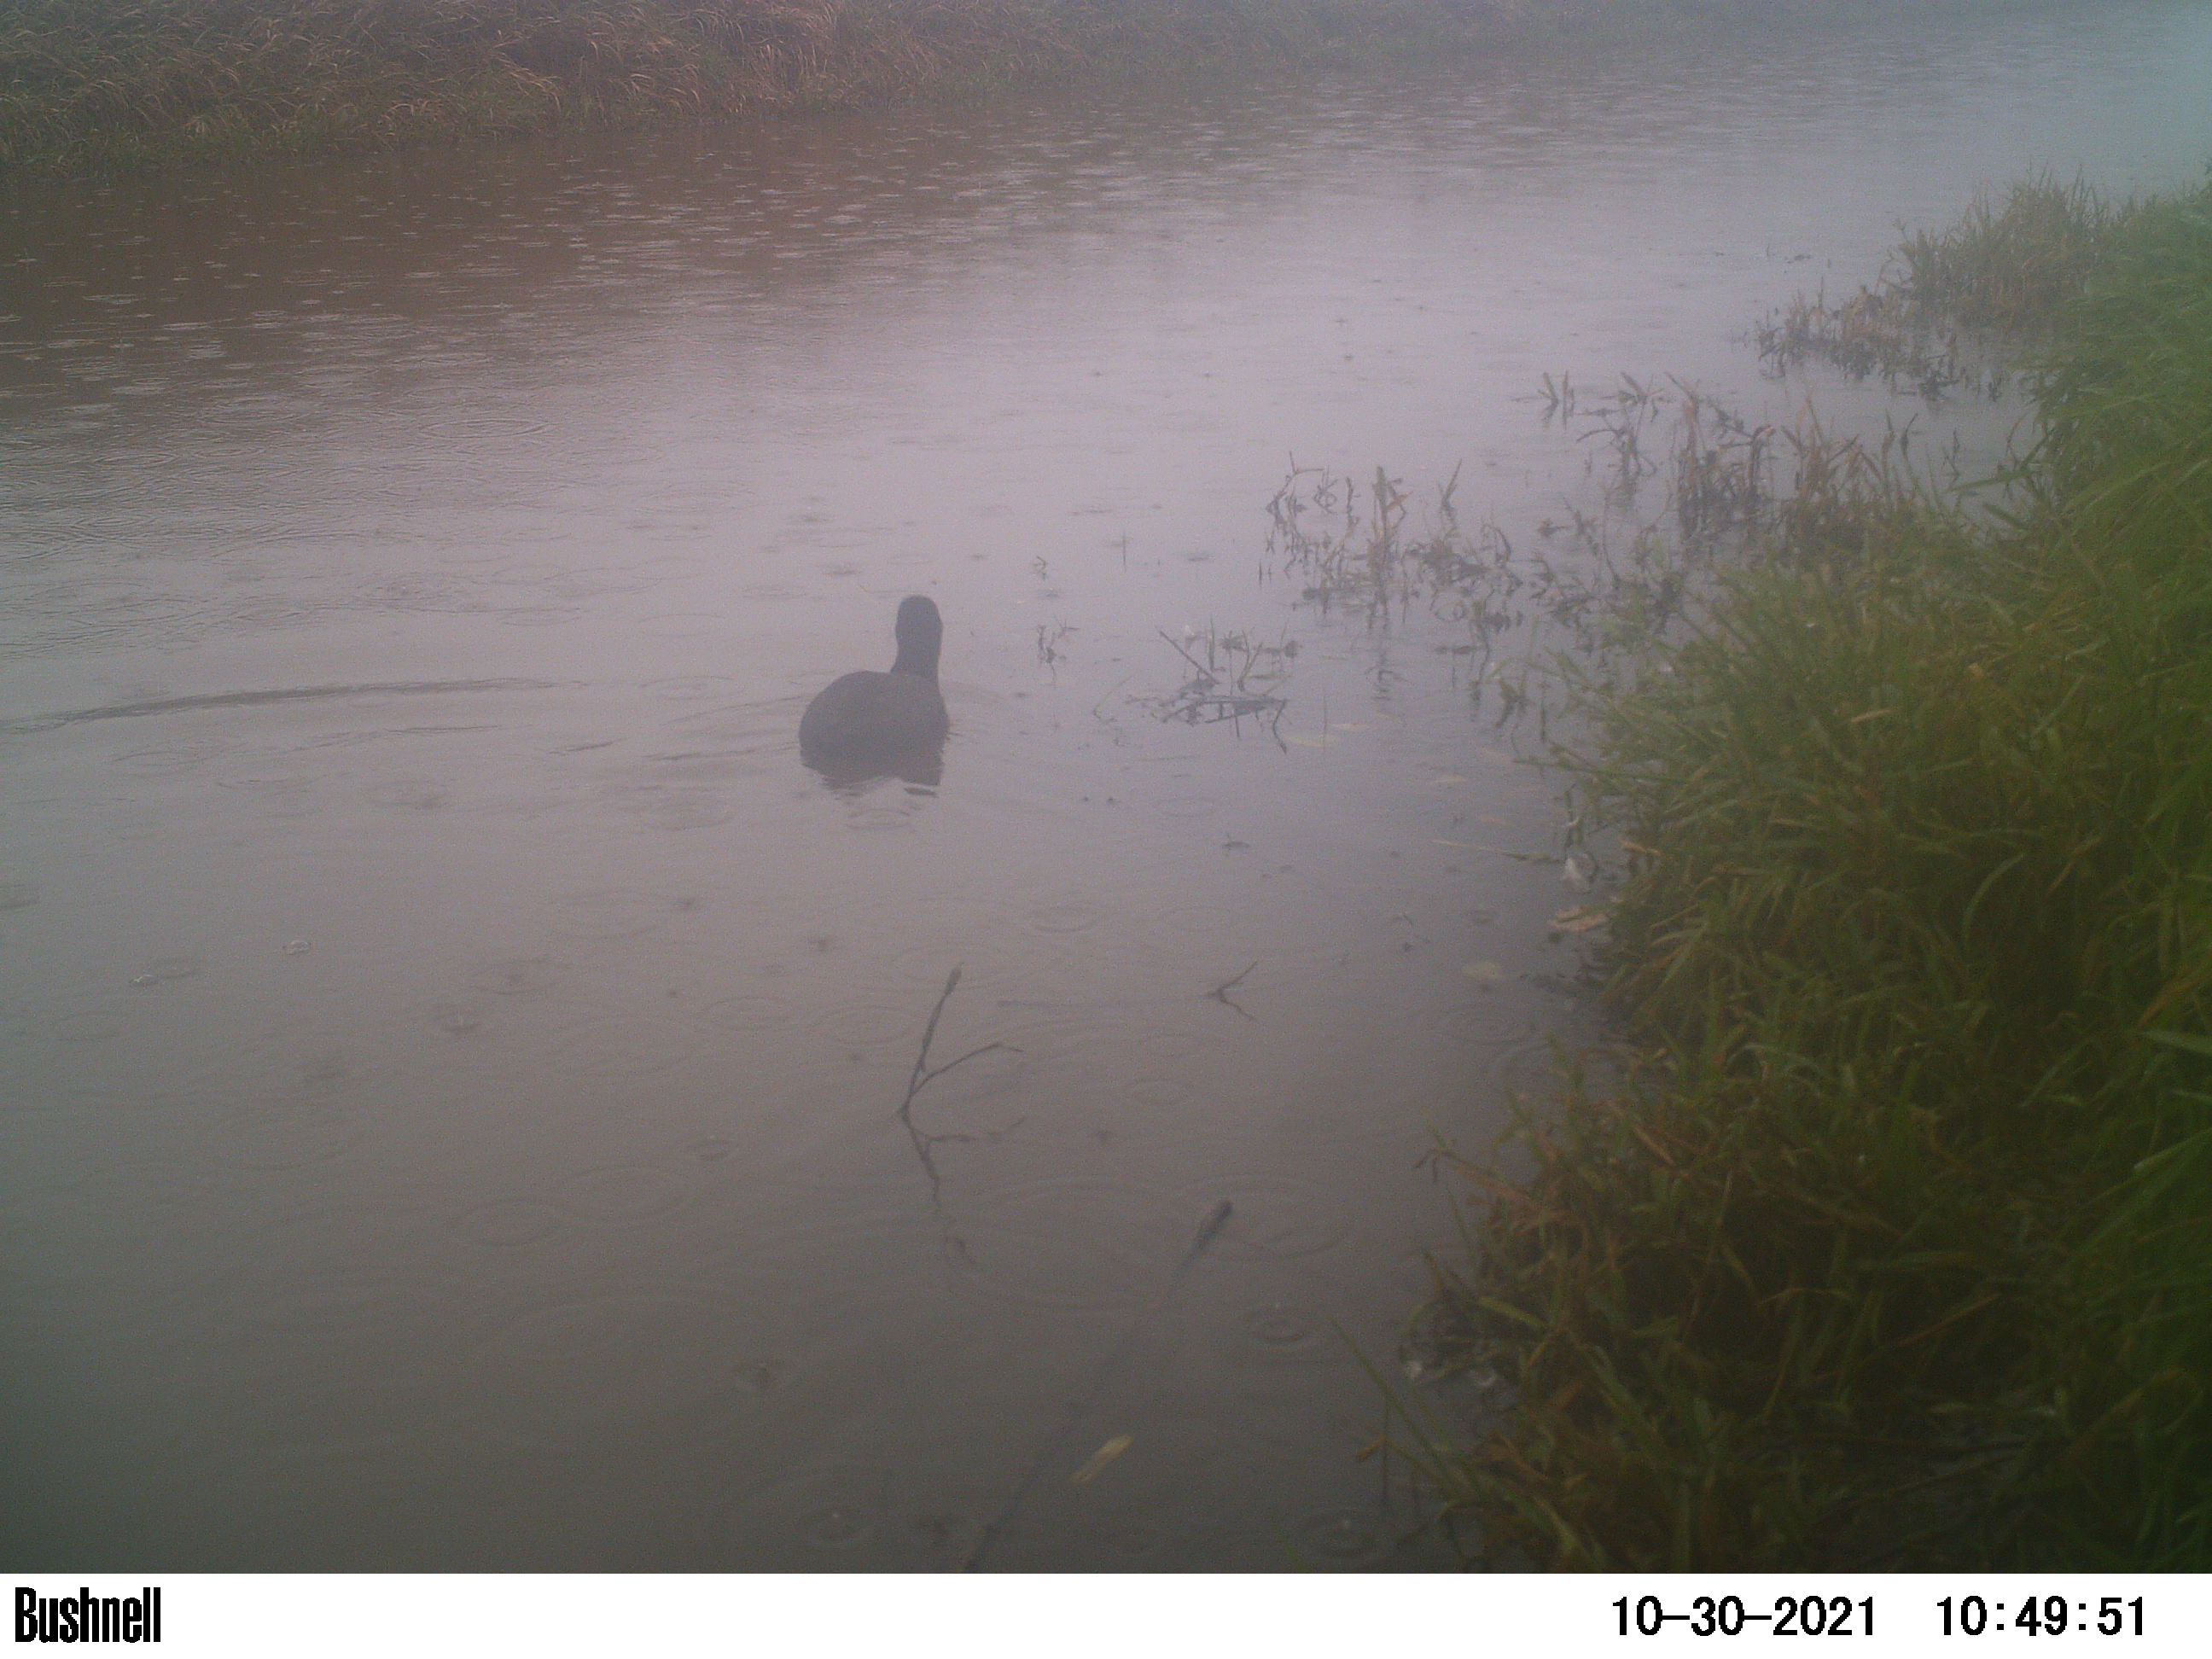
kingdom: Animalia
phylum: Chordata
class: Aves
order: Gruiformes
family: Rallidae
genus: Fulica
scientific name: Fulica atra
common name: Eurasian coot
